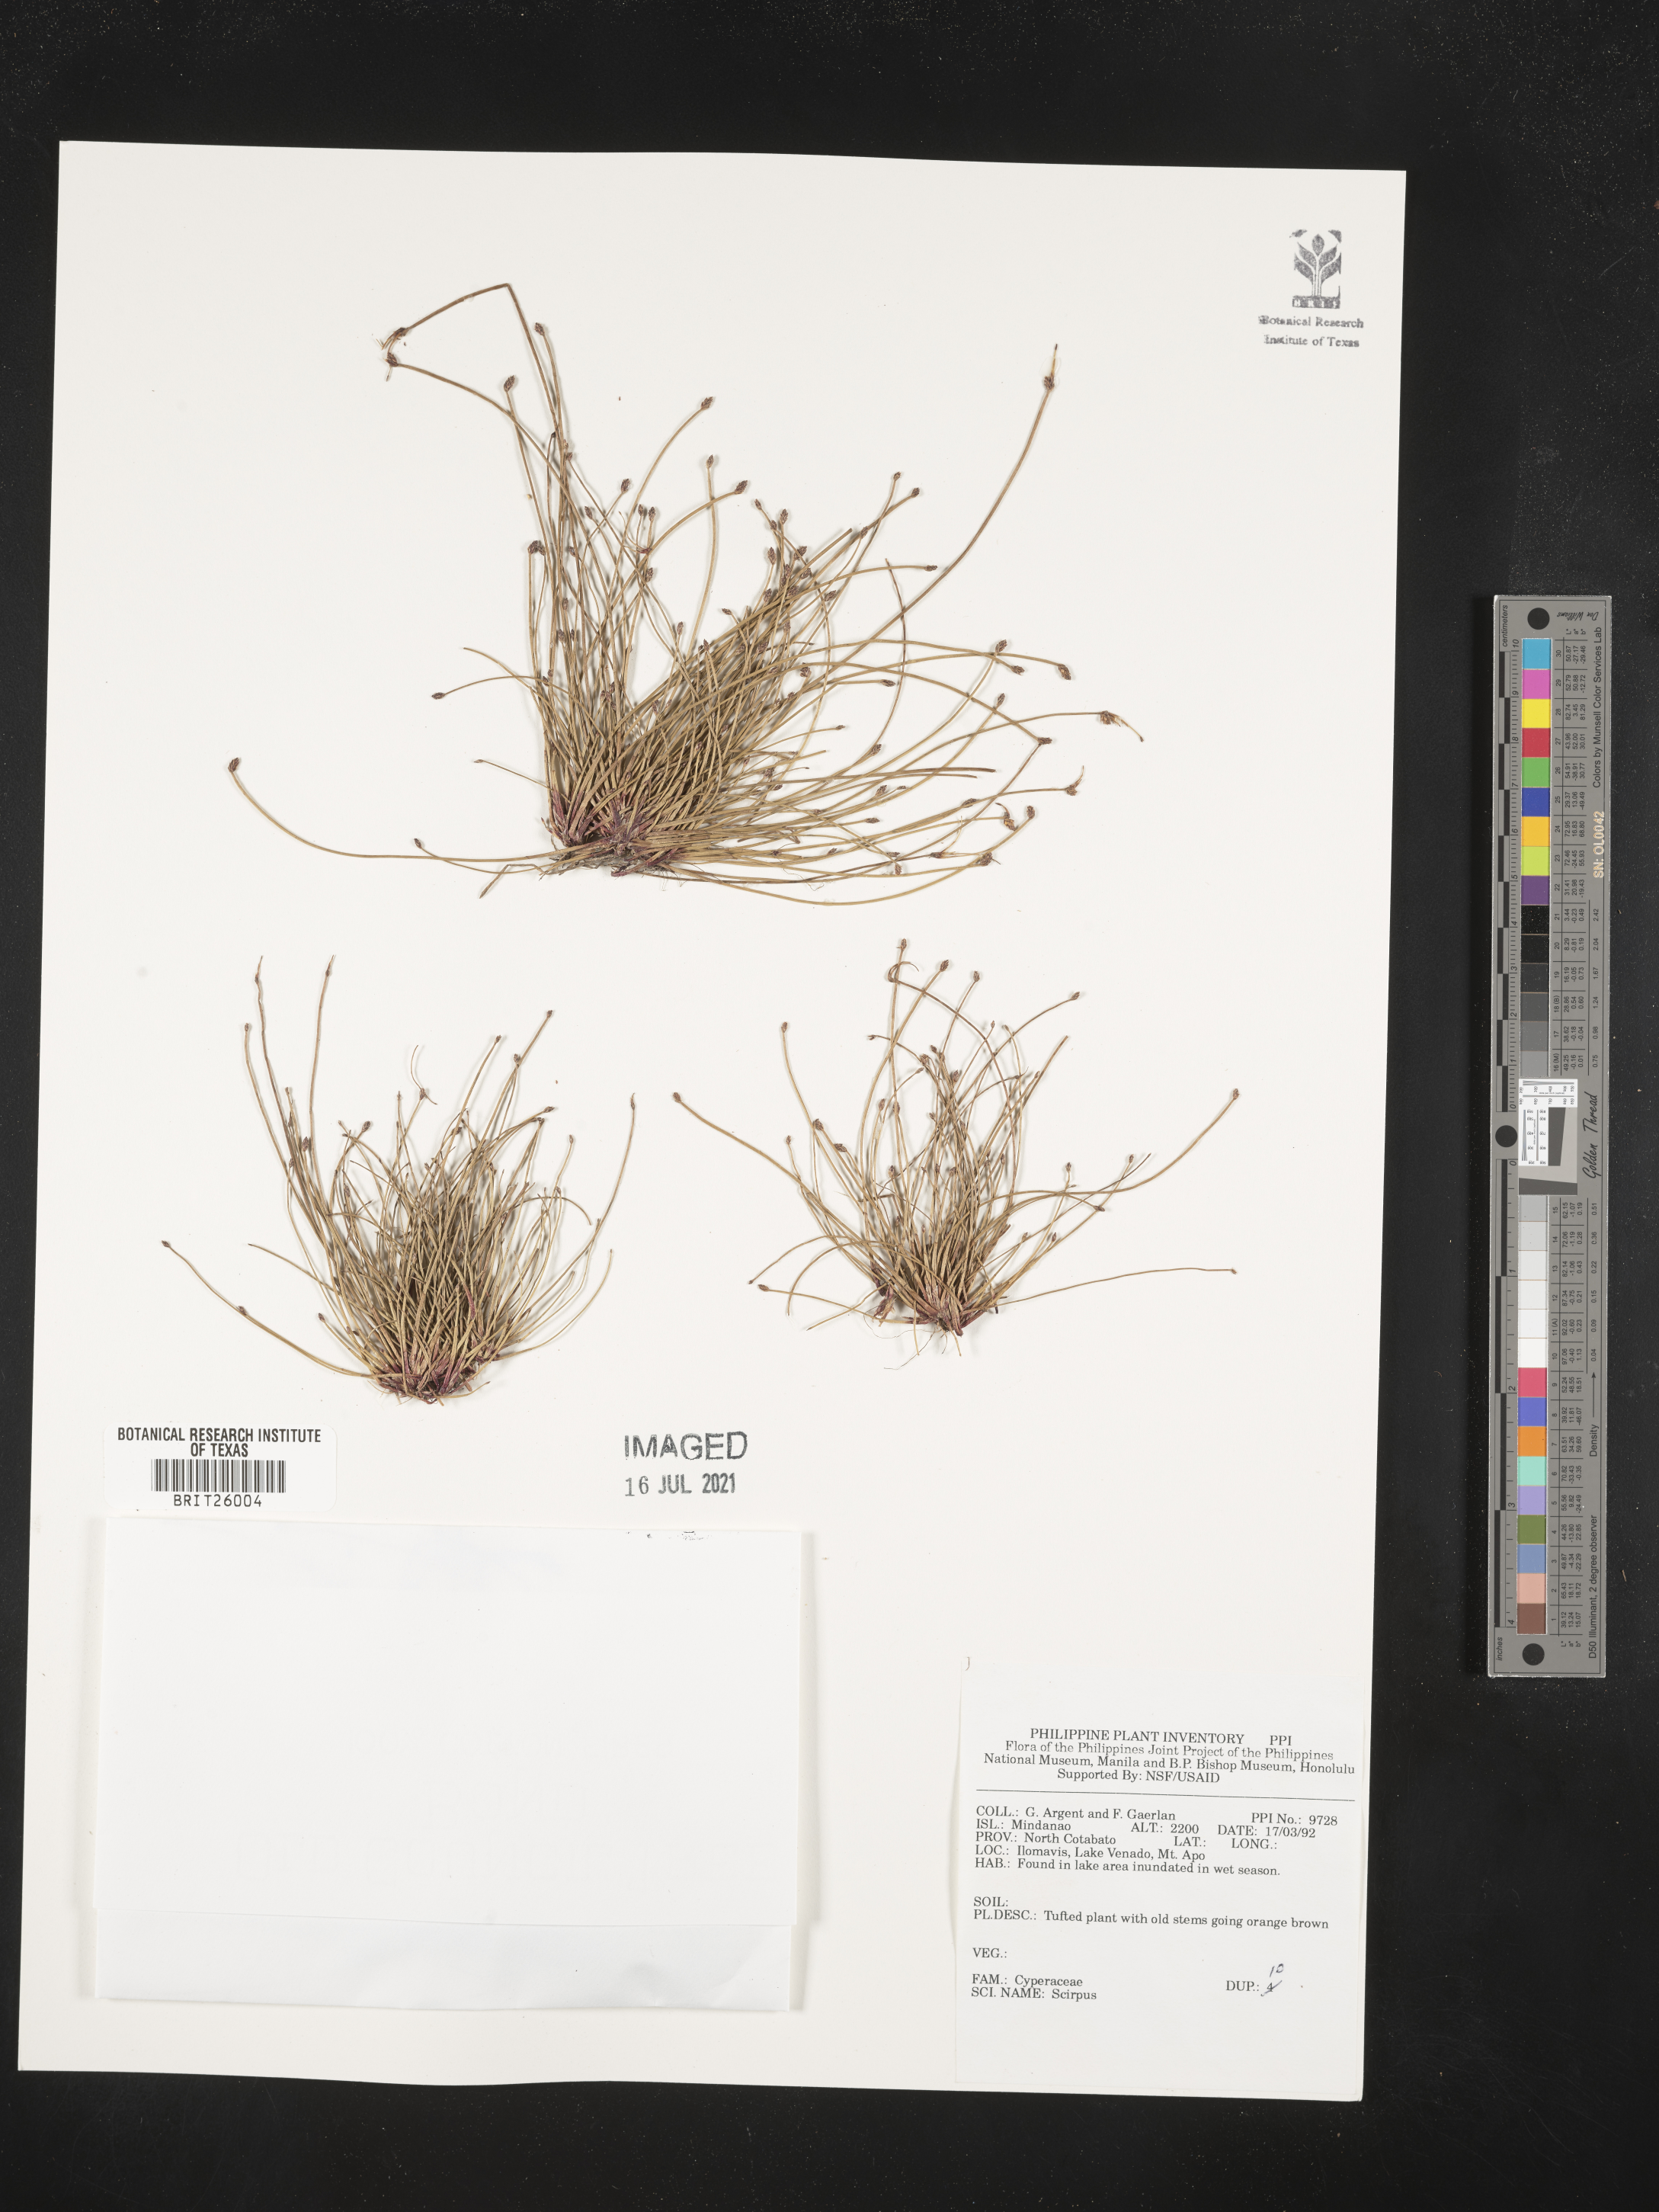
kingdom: Plantae
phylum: Tracheophyta
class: Liliopsida
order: Poales
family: Cyperaceae
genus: Scirpus
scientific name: Scirpus
